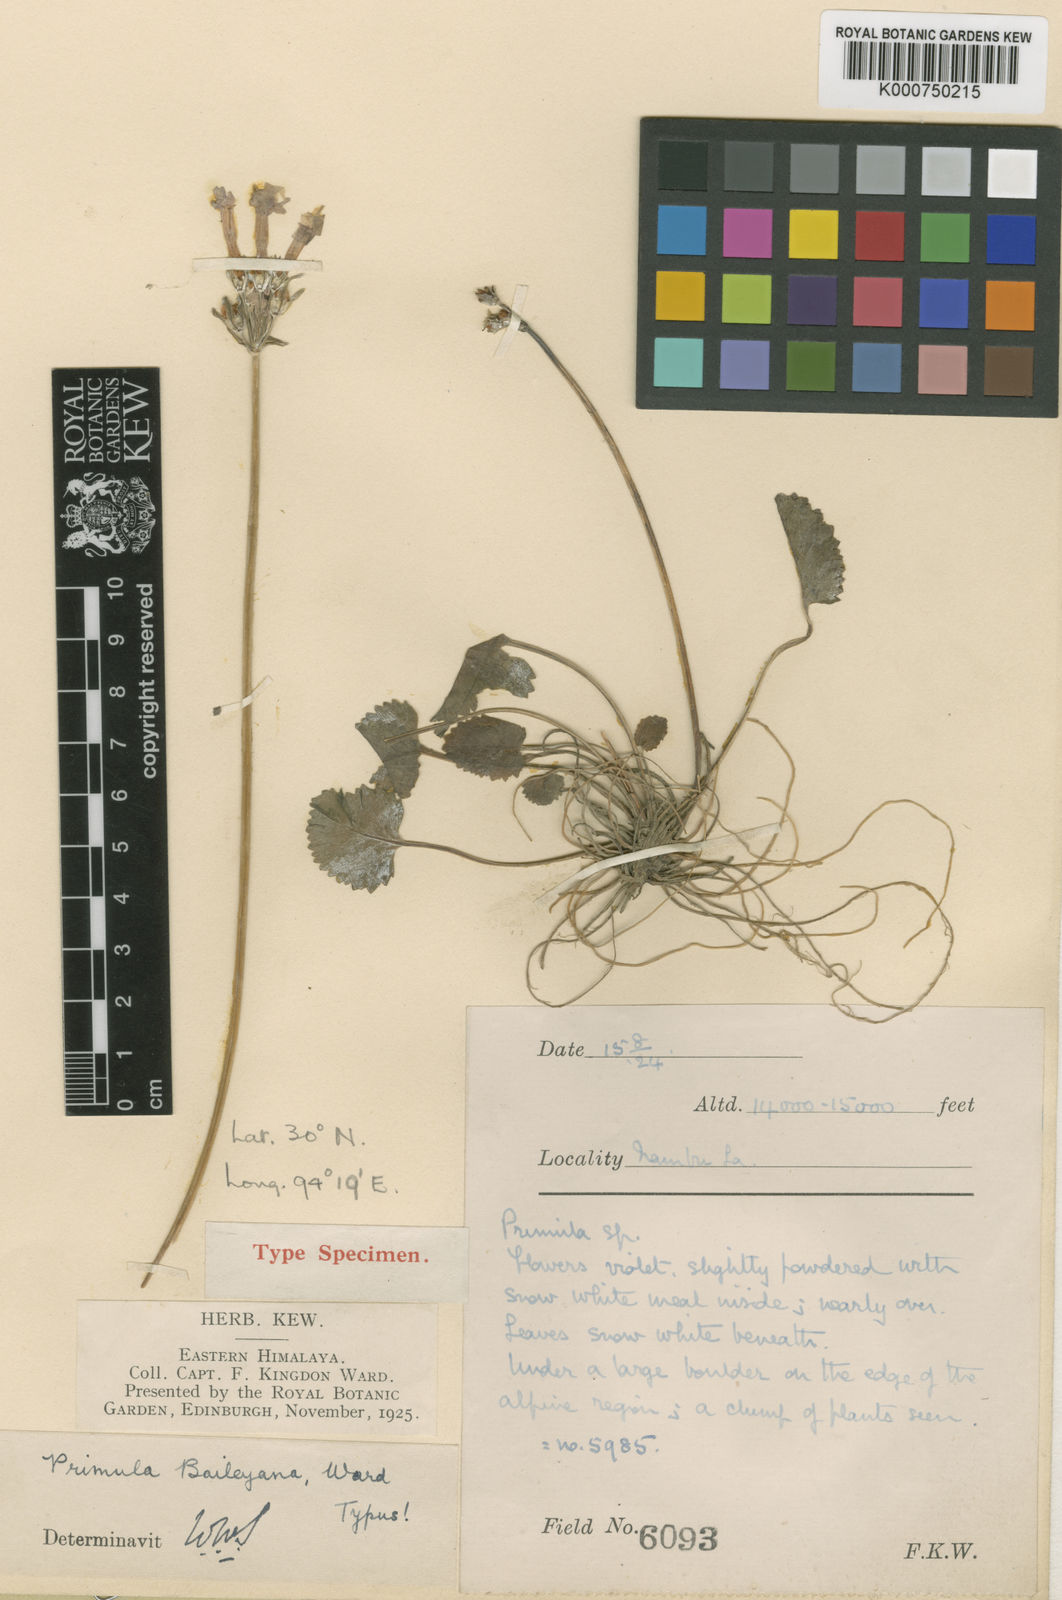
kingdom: Plantae
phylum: Tracheophyta
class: Magnoliopsida
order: Ericales
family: Primulaceae
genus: Primula
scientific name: Primula baileyana
